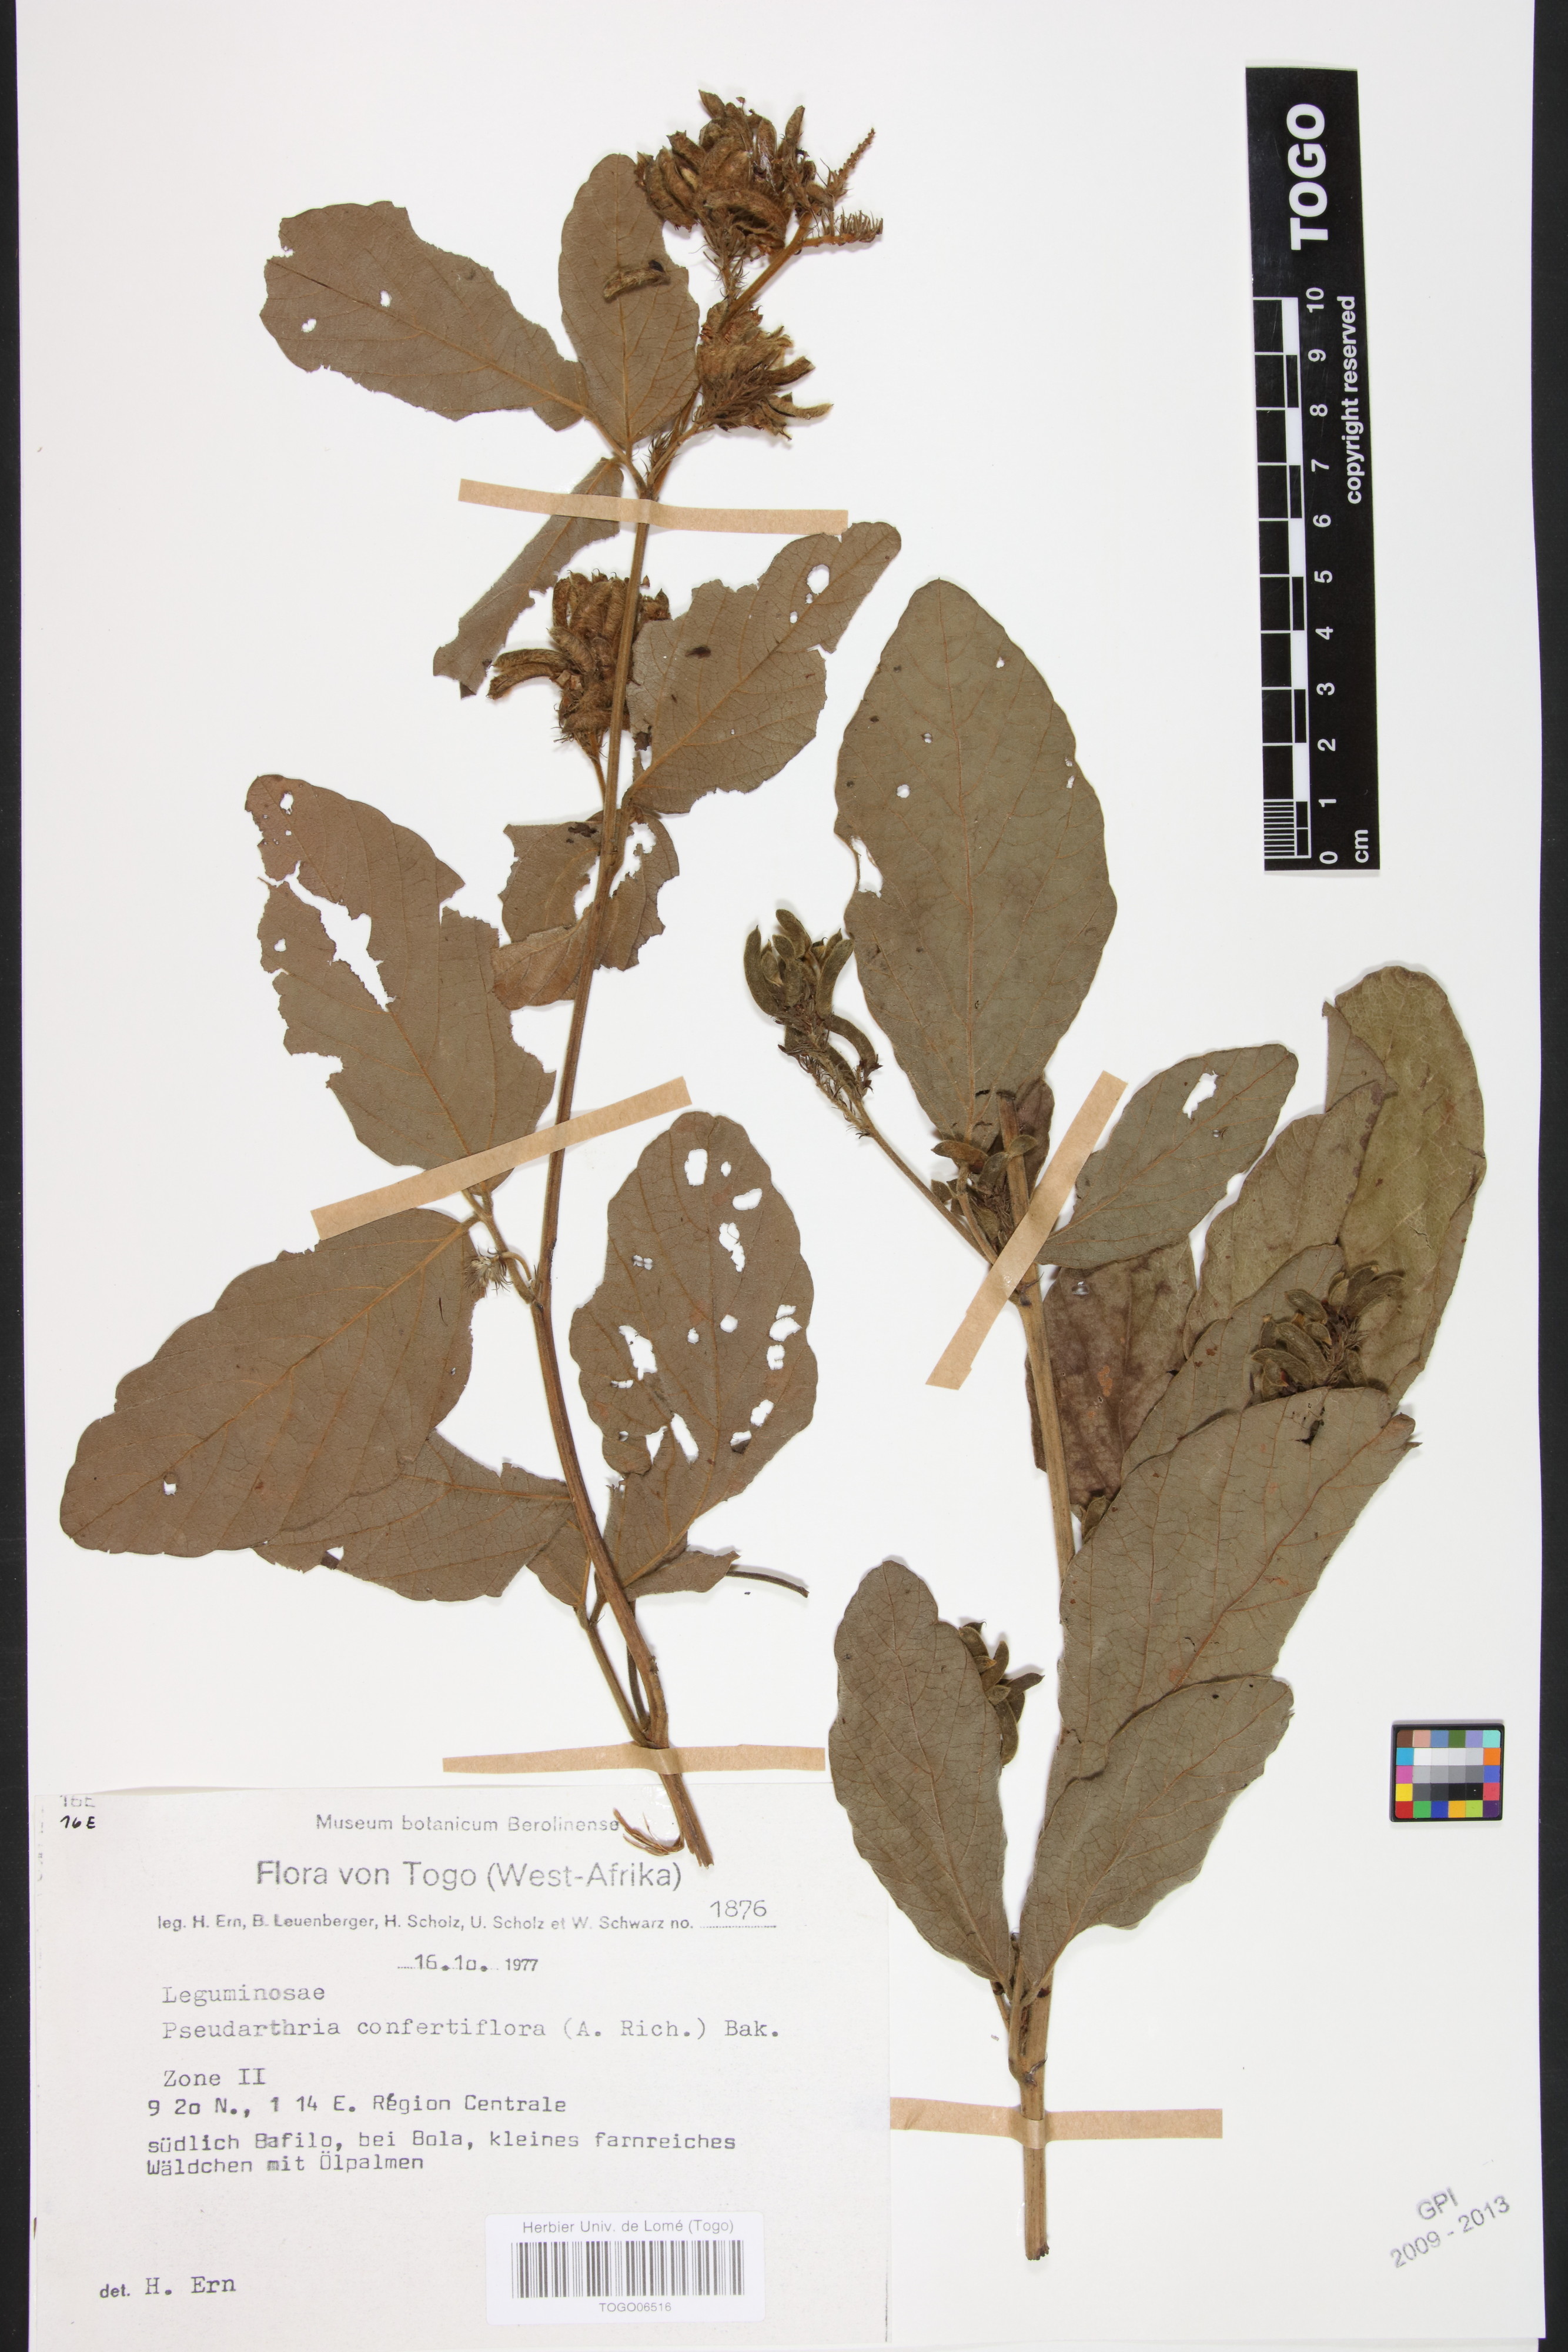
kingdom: Plantae
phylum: Tracheophyta
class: Magnoliopsida
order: Fabales
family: Fabaceae
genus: Pseudarthria
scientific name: Pseudarthria confertiflora
